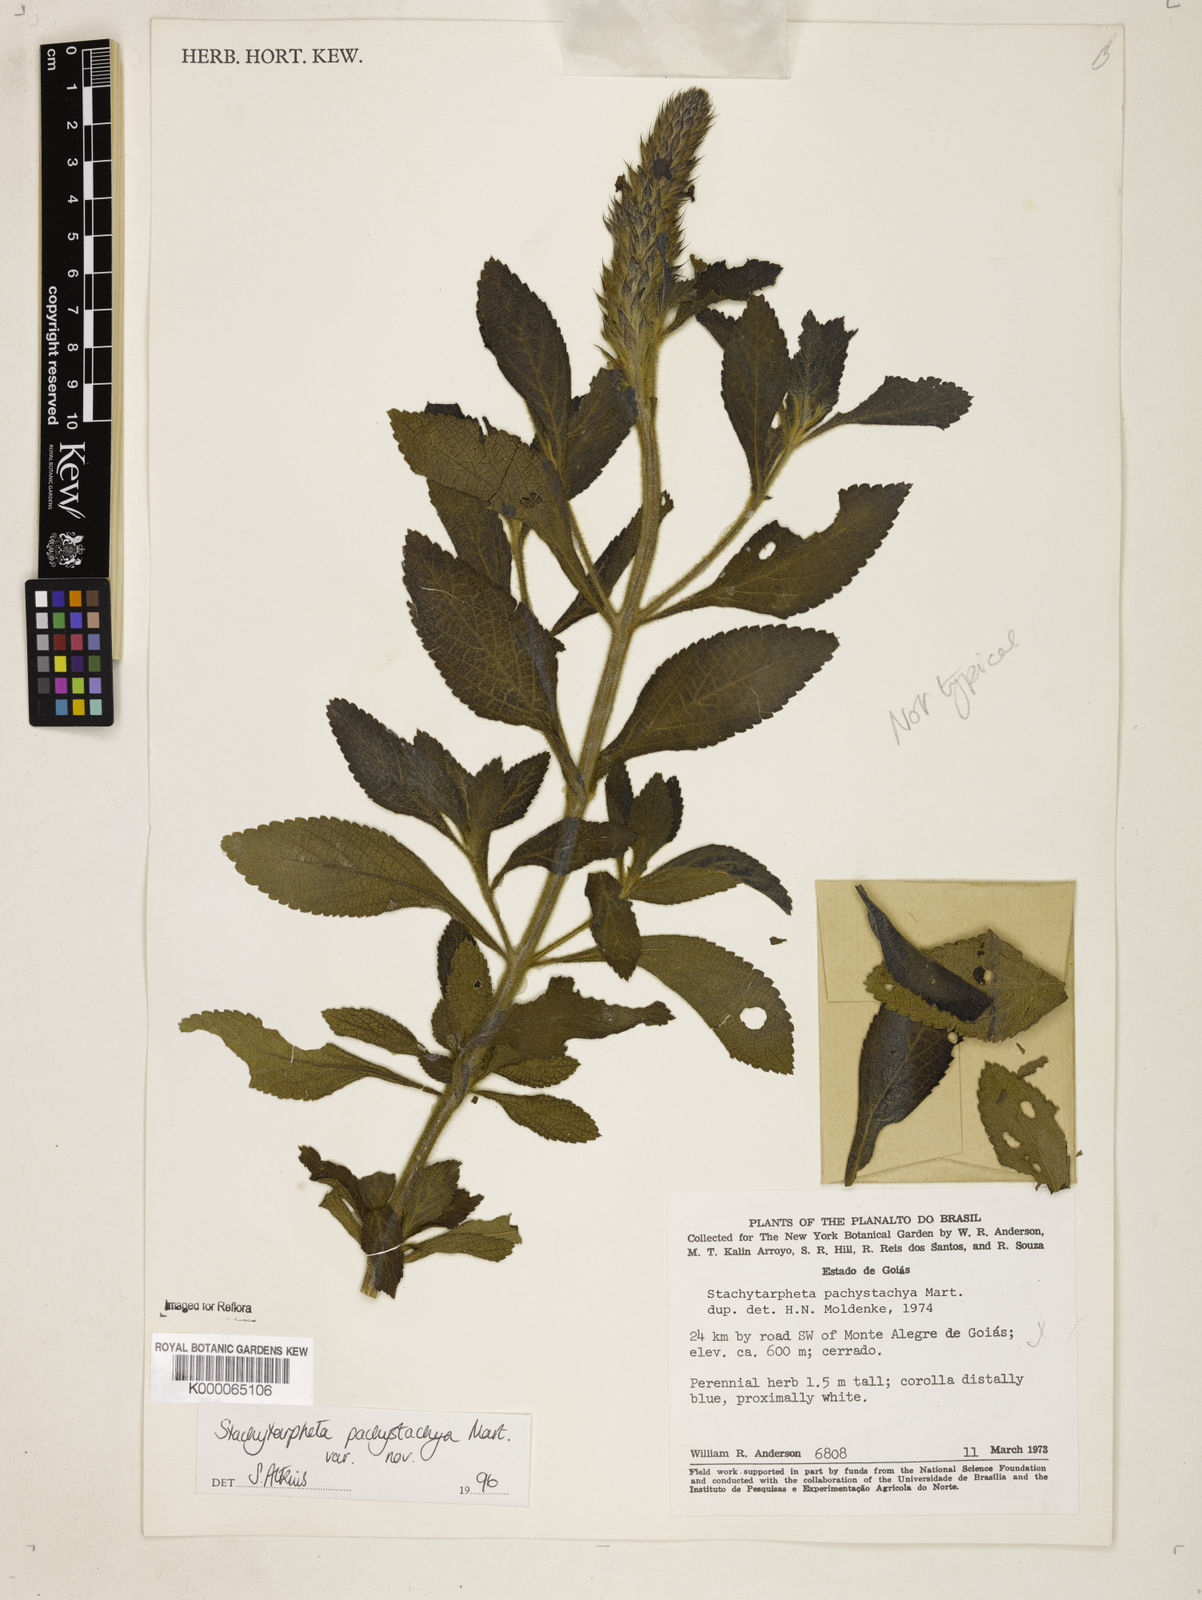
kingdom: Plantae
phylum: Tracheophyta
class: Magnoliopsida
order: Lamiales
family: Verbenaceae
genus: Stachytarpheta
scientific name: Stachytarpheta
